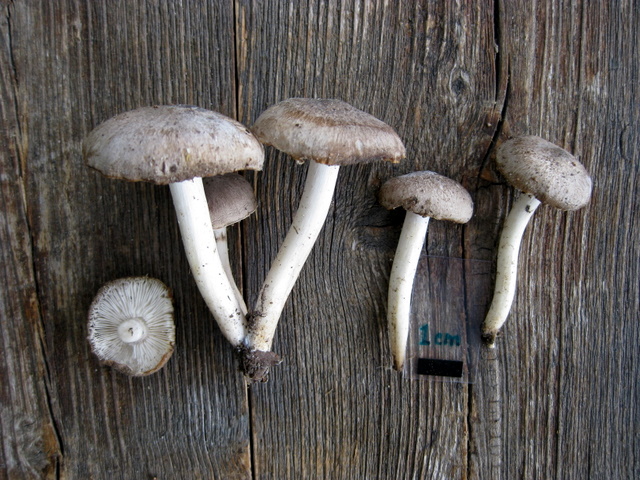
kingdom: Fungi
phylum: Basidiomycota
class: Agaricomycetes
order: Agaricales
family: Tricholomataceae
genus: Tricholoma
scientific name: Tricholoma terreum
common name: jordfarvet ridderhat
